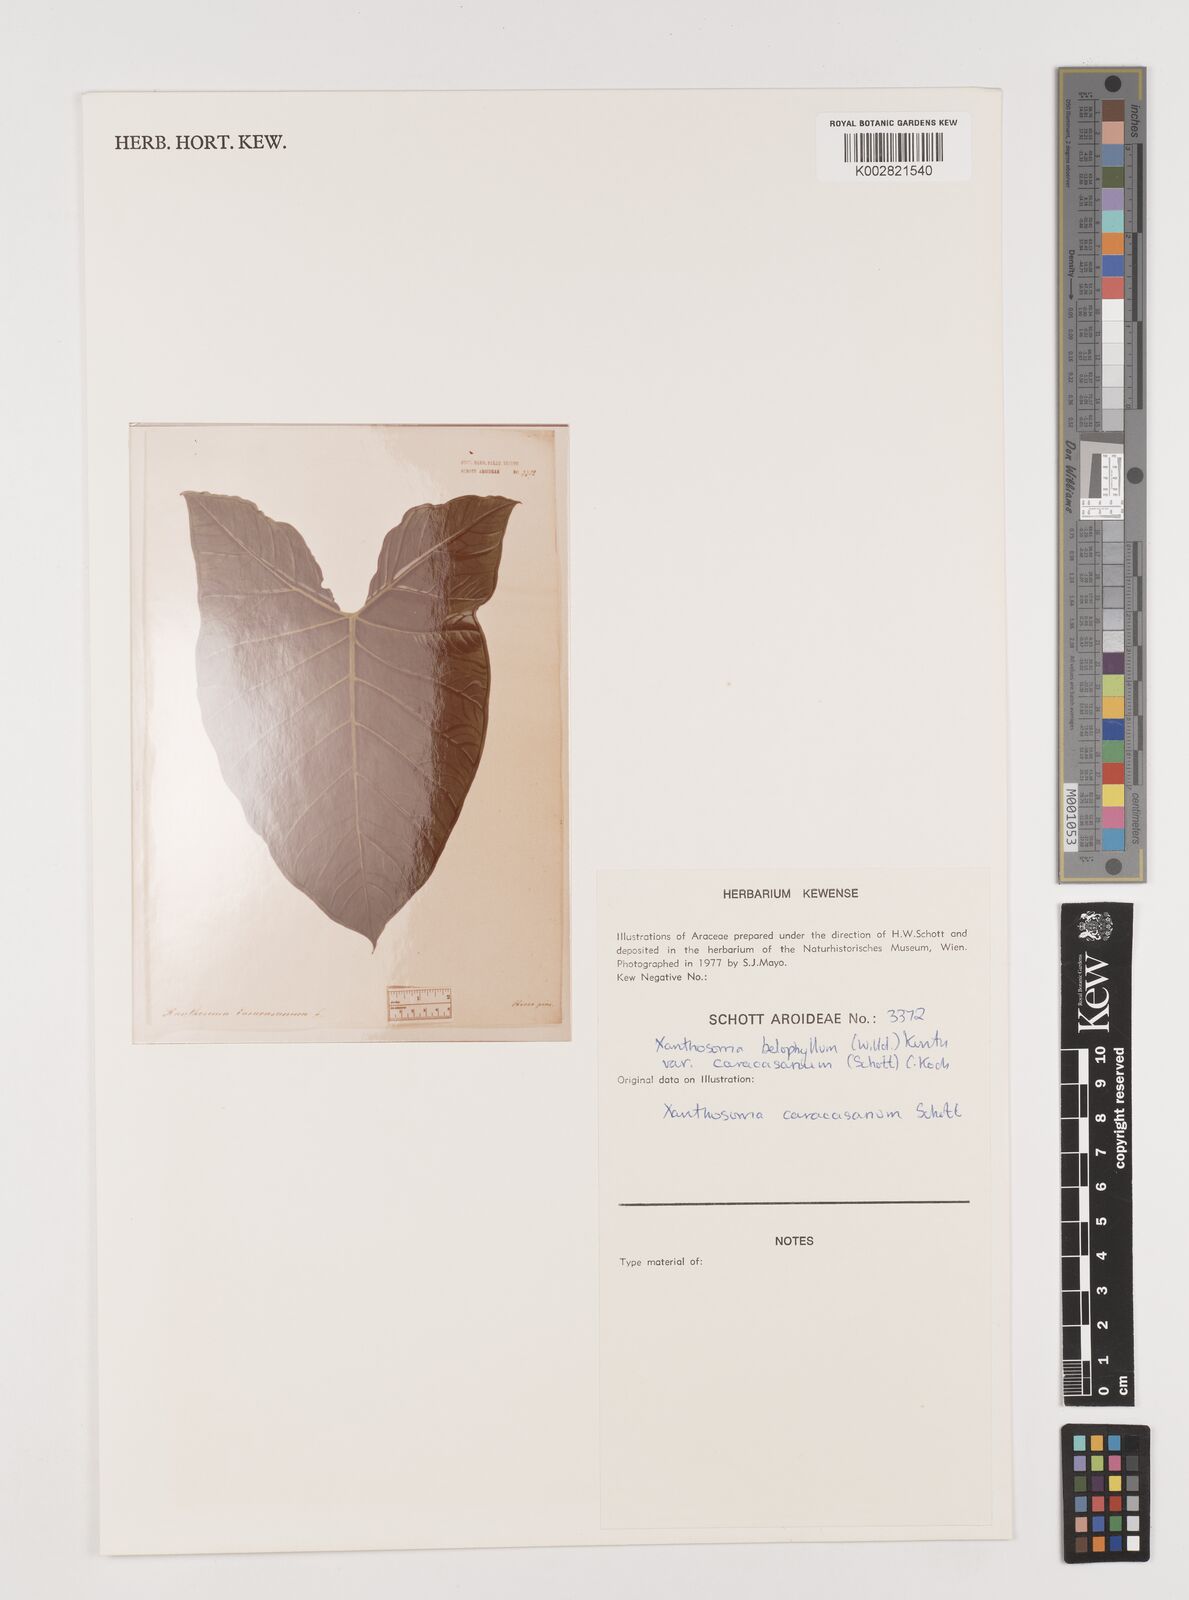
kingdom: Plantae
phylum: Tracheophyta
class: Liliopsida
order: Alismatales
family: Araceae
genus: Xanthosoma
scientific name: Xanthosoma belophyllum
